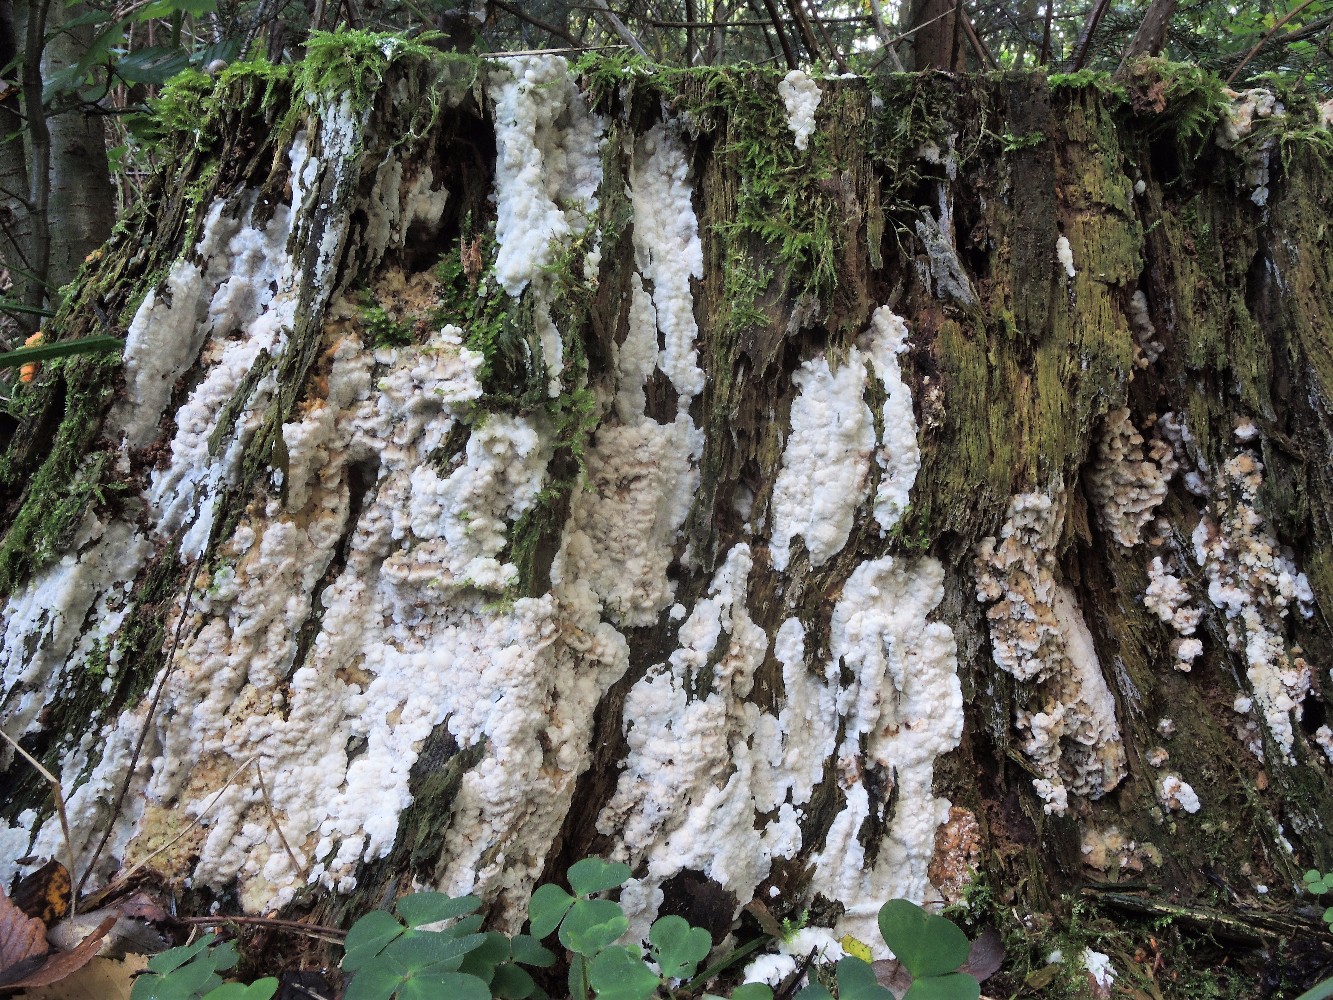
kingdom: Fungi
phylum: Basidiomycota
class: Agaricomycetes
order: Polyporales
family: Fomitopsidaceae
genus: Neoantrodia
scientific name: Neoantrodia serialis
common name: række-sejporesvamp
